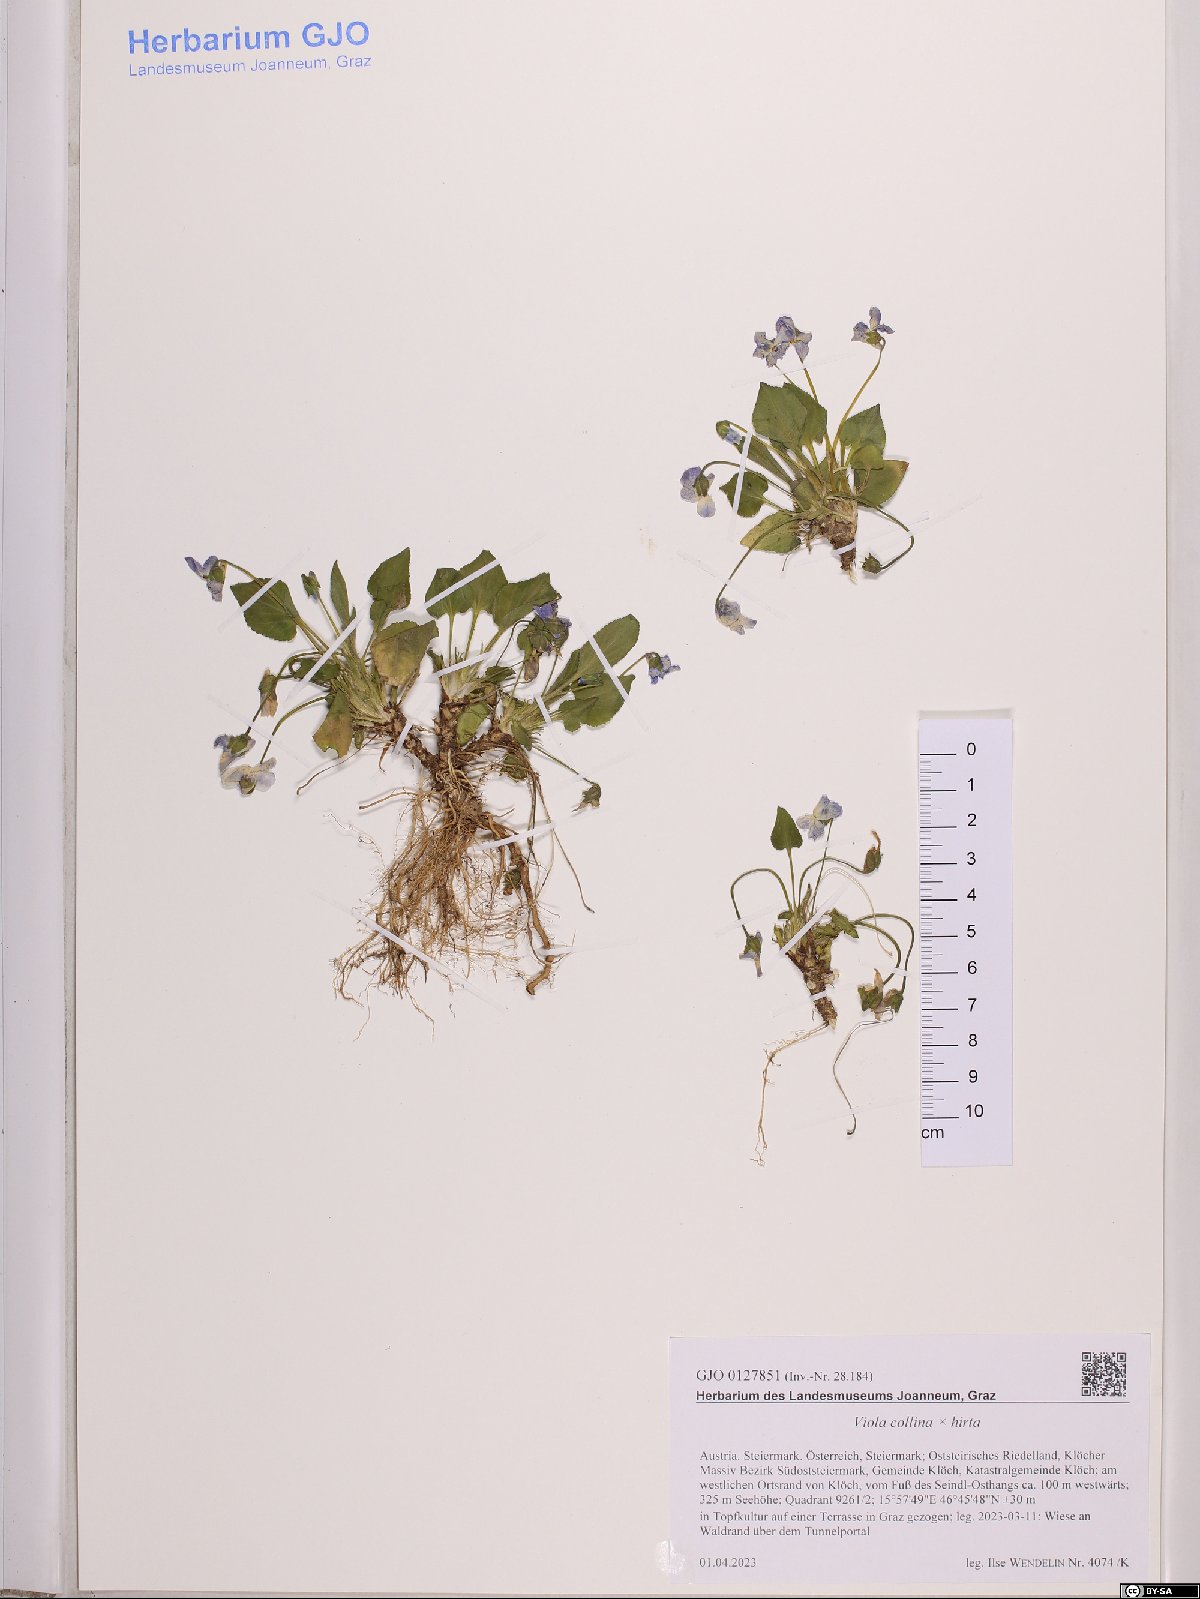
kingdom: Plantae
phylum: Tracheophyta
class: Magnoliopsida
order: Malpighiales
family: Violaceae
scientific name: Violaceae
